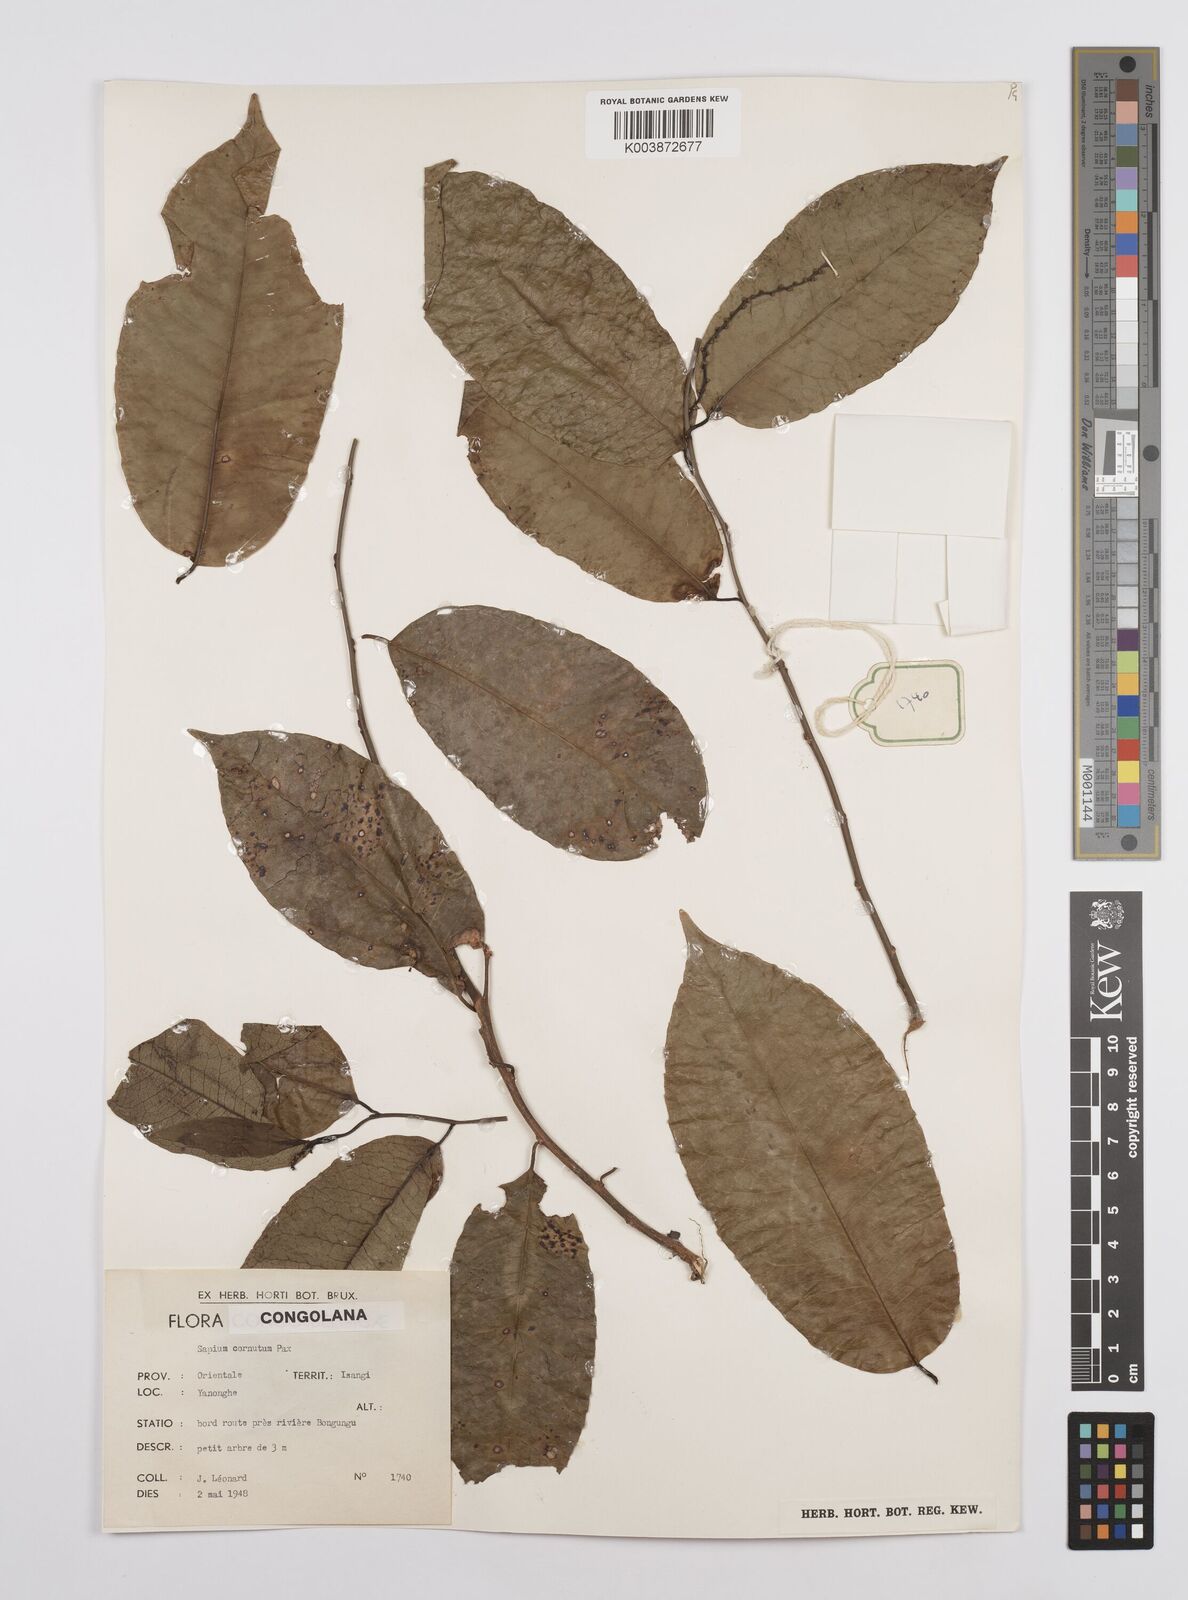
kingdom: Plantae
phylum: Tracheophyta
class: Magnoliopsida
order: Malpighiales
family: Euphorbiaceae
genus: Sclerocroton
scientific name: Sclerocroton cornutus
